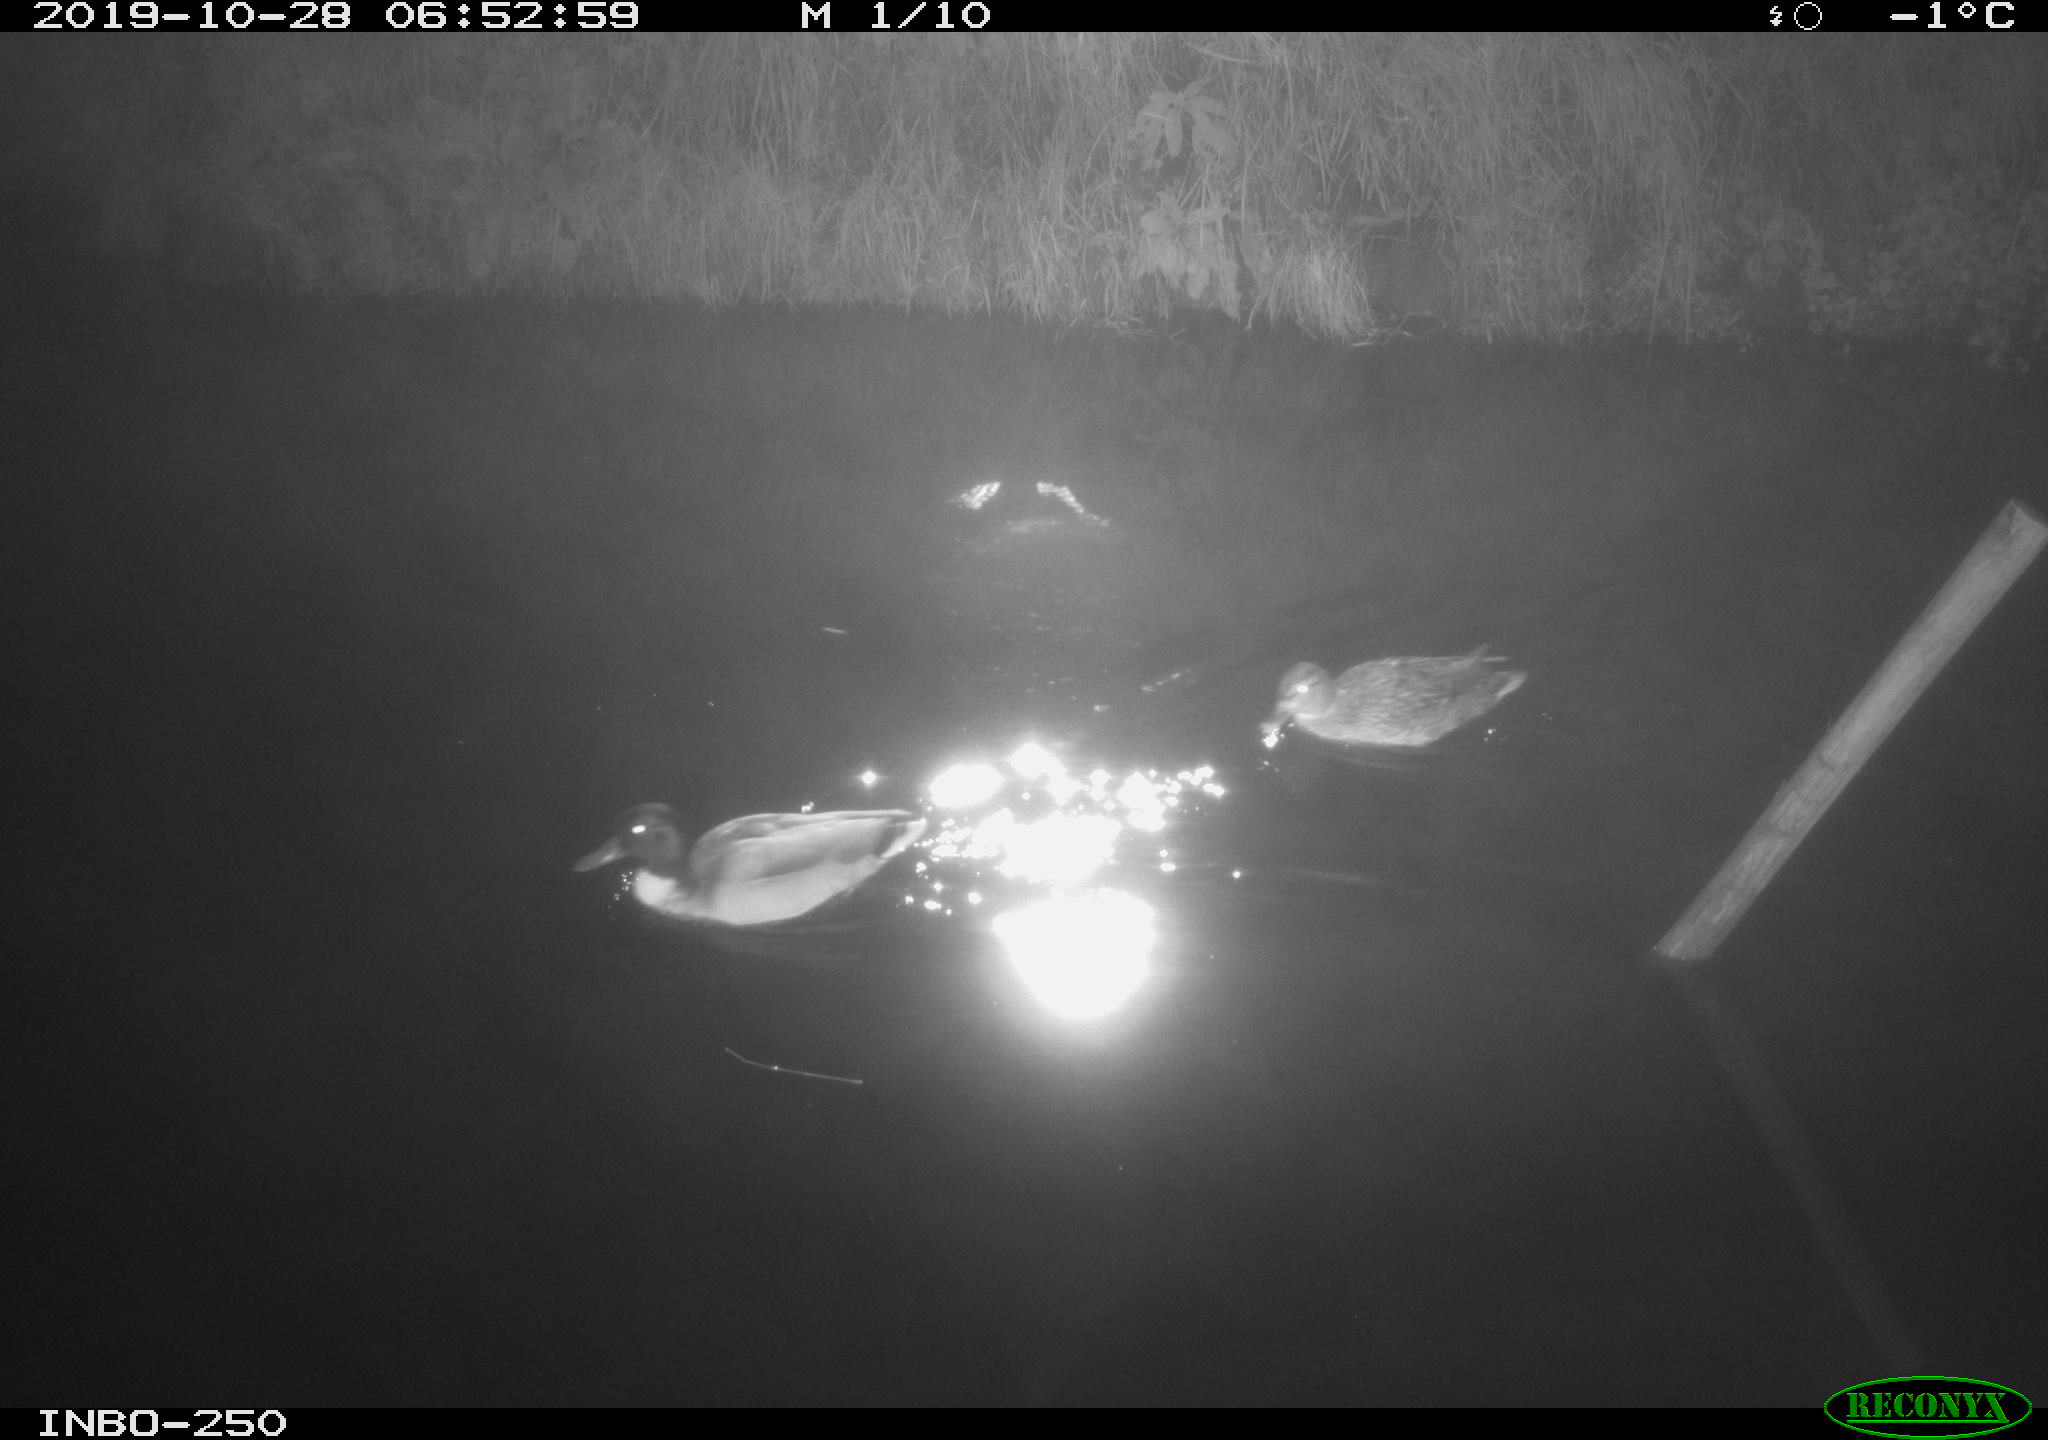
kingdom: Animalia
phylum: Chordata
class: Aves
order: Anseriformes
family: Anatidae
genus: Anas
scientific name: Anas platyrhynchos
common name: Mallard
